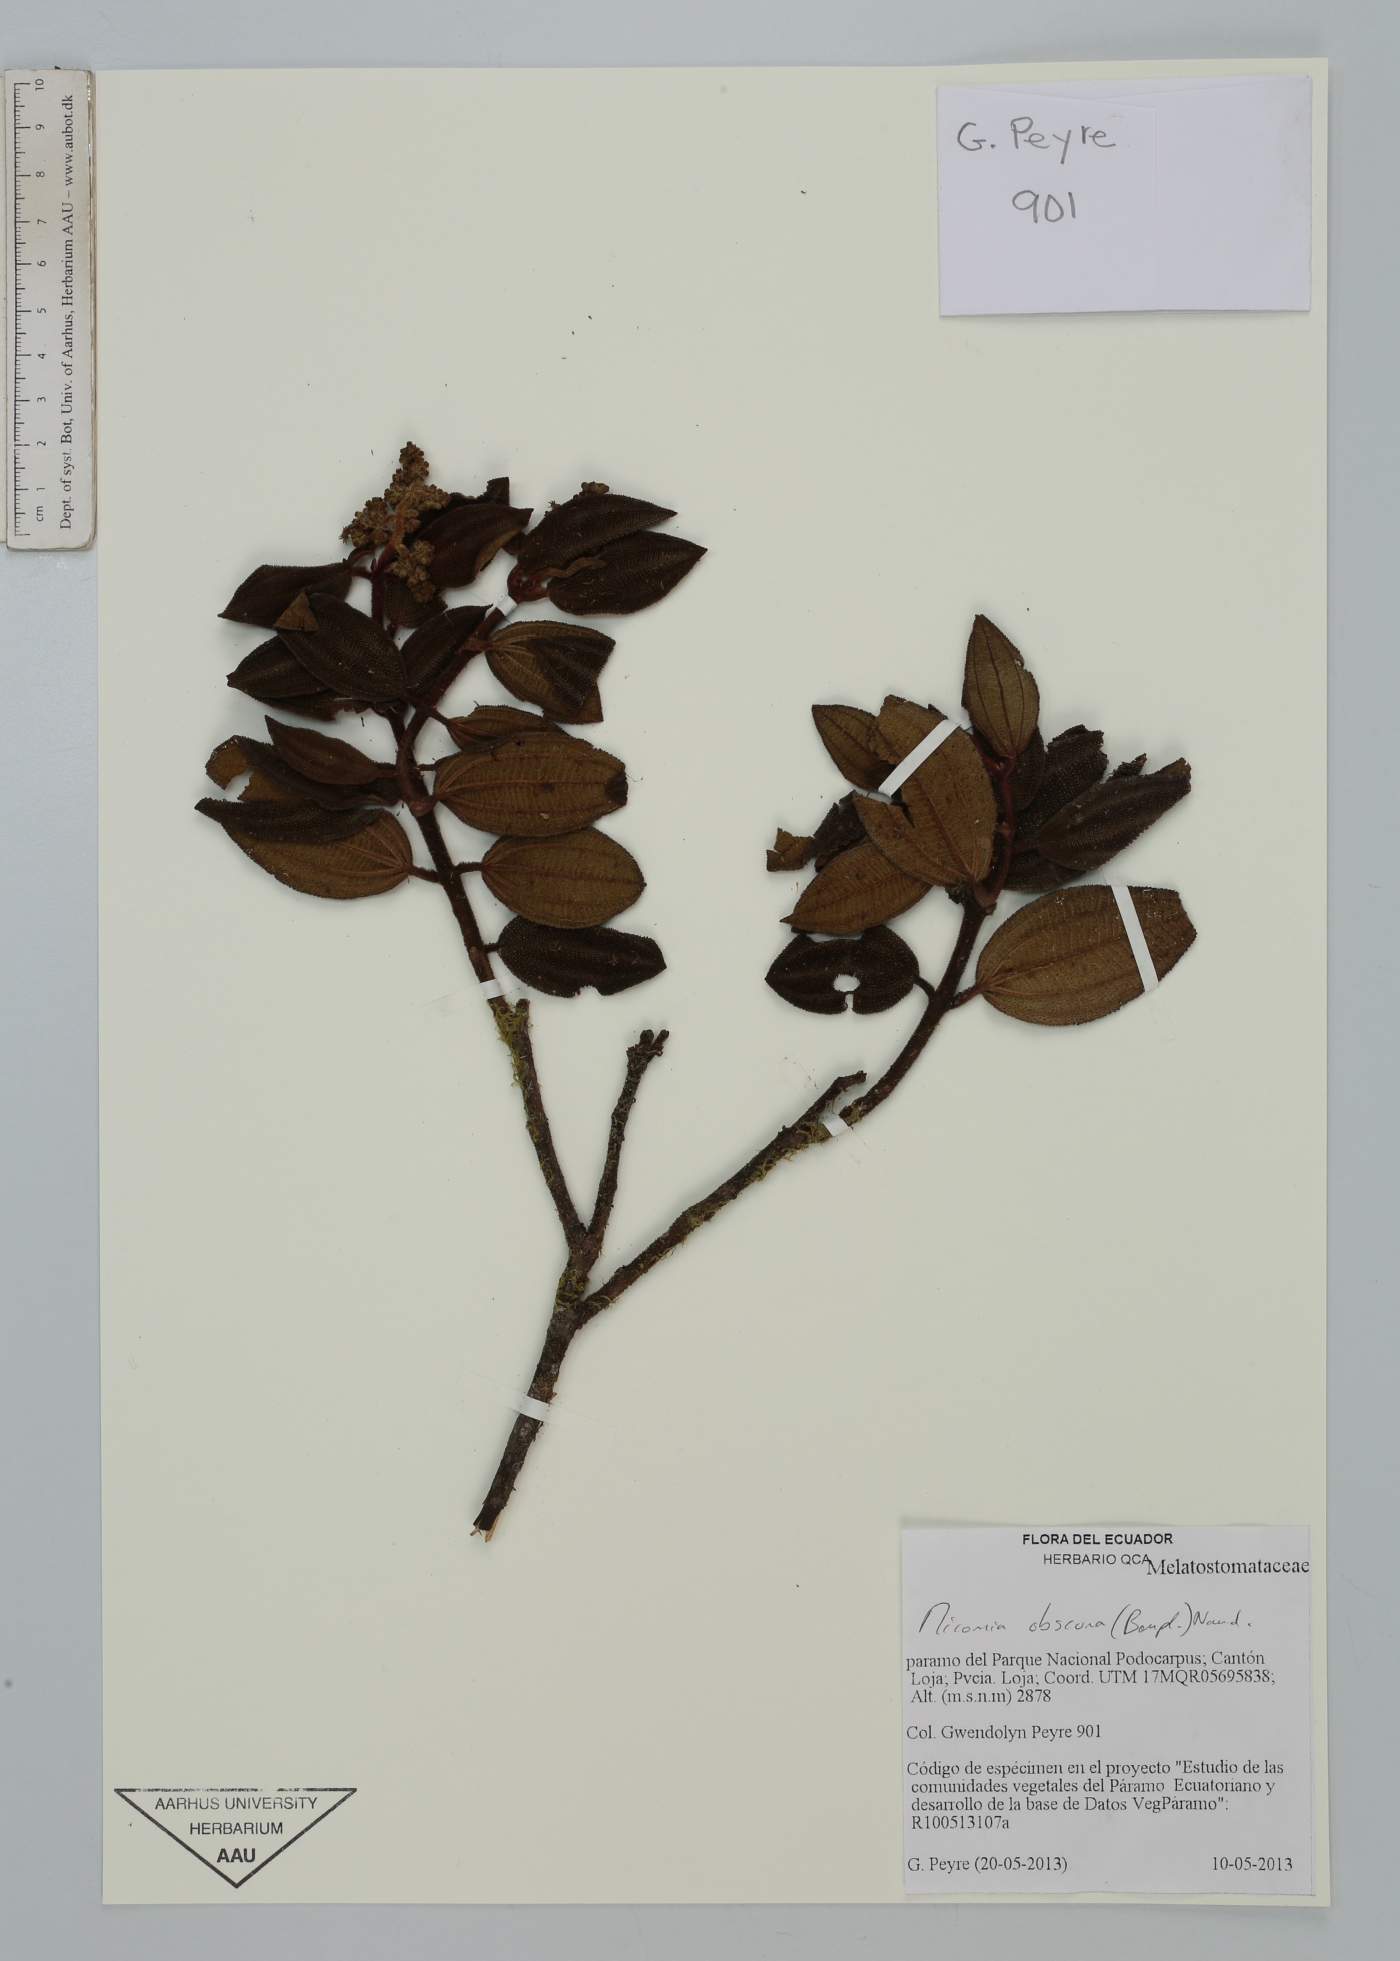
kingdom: Plantae
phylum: Tracheophyta
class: Magnoliopsida
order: Myrtales
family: Melastomataceae
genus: Miconia
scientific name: Miconia obscura
